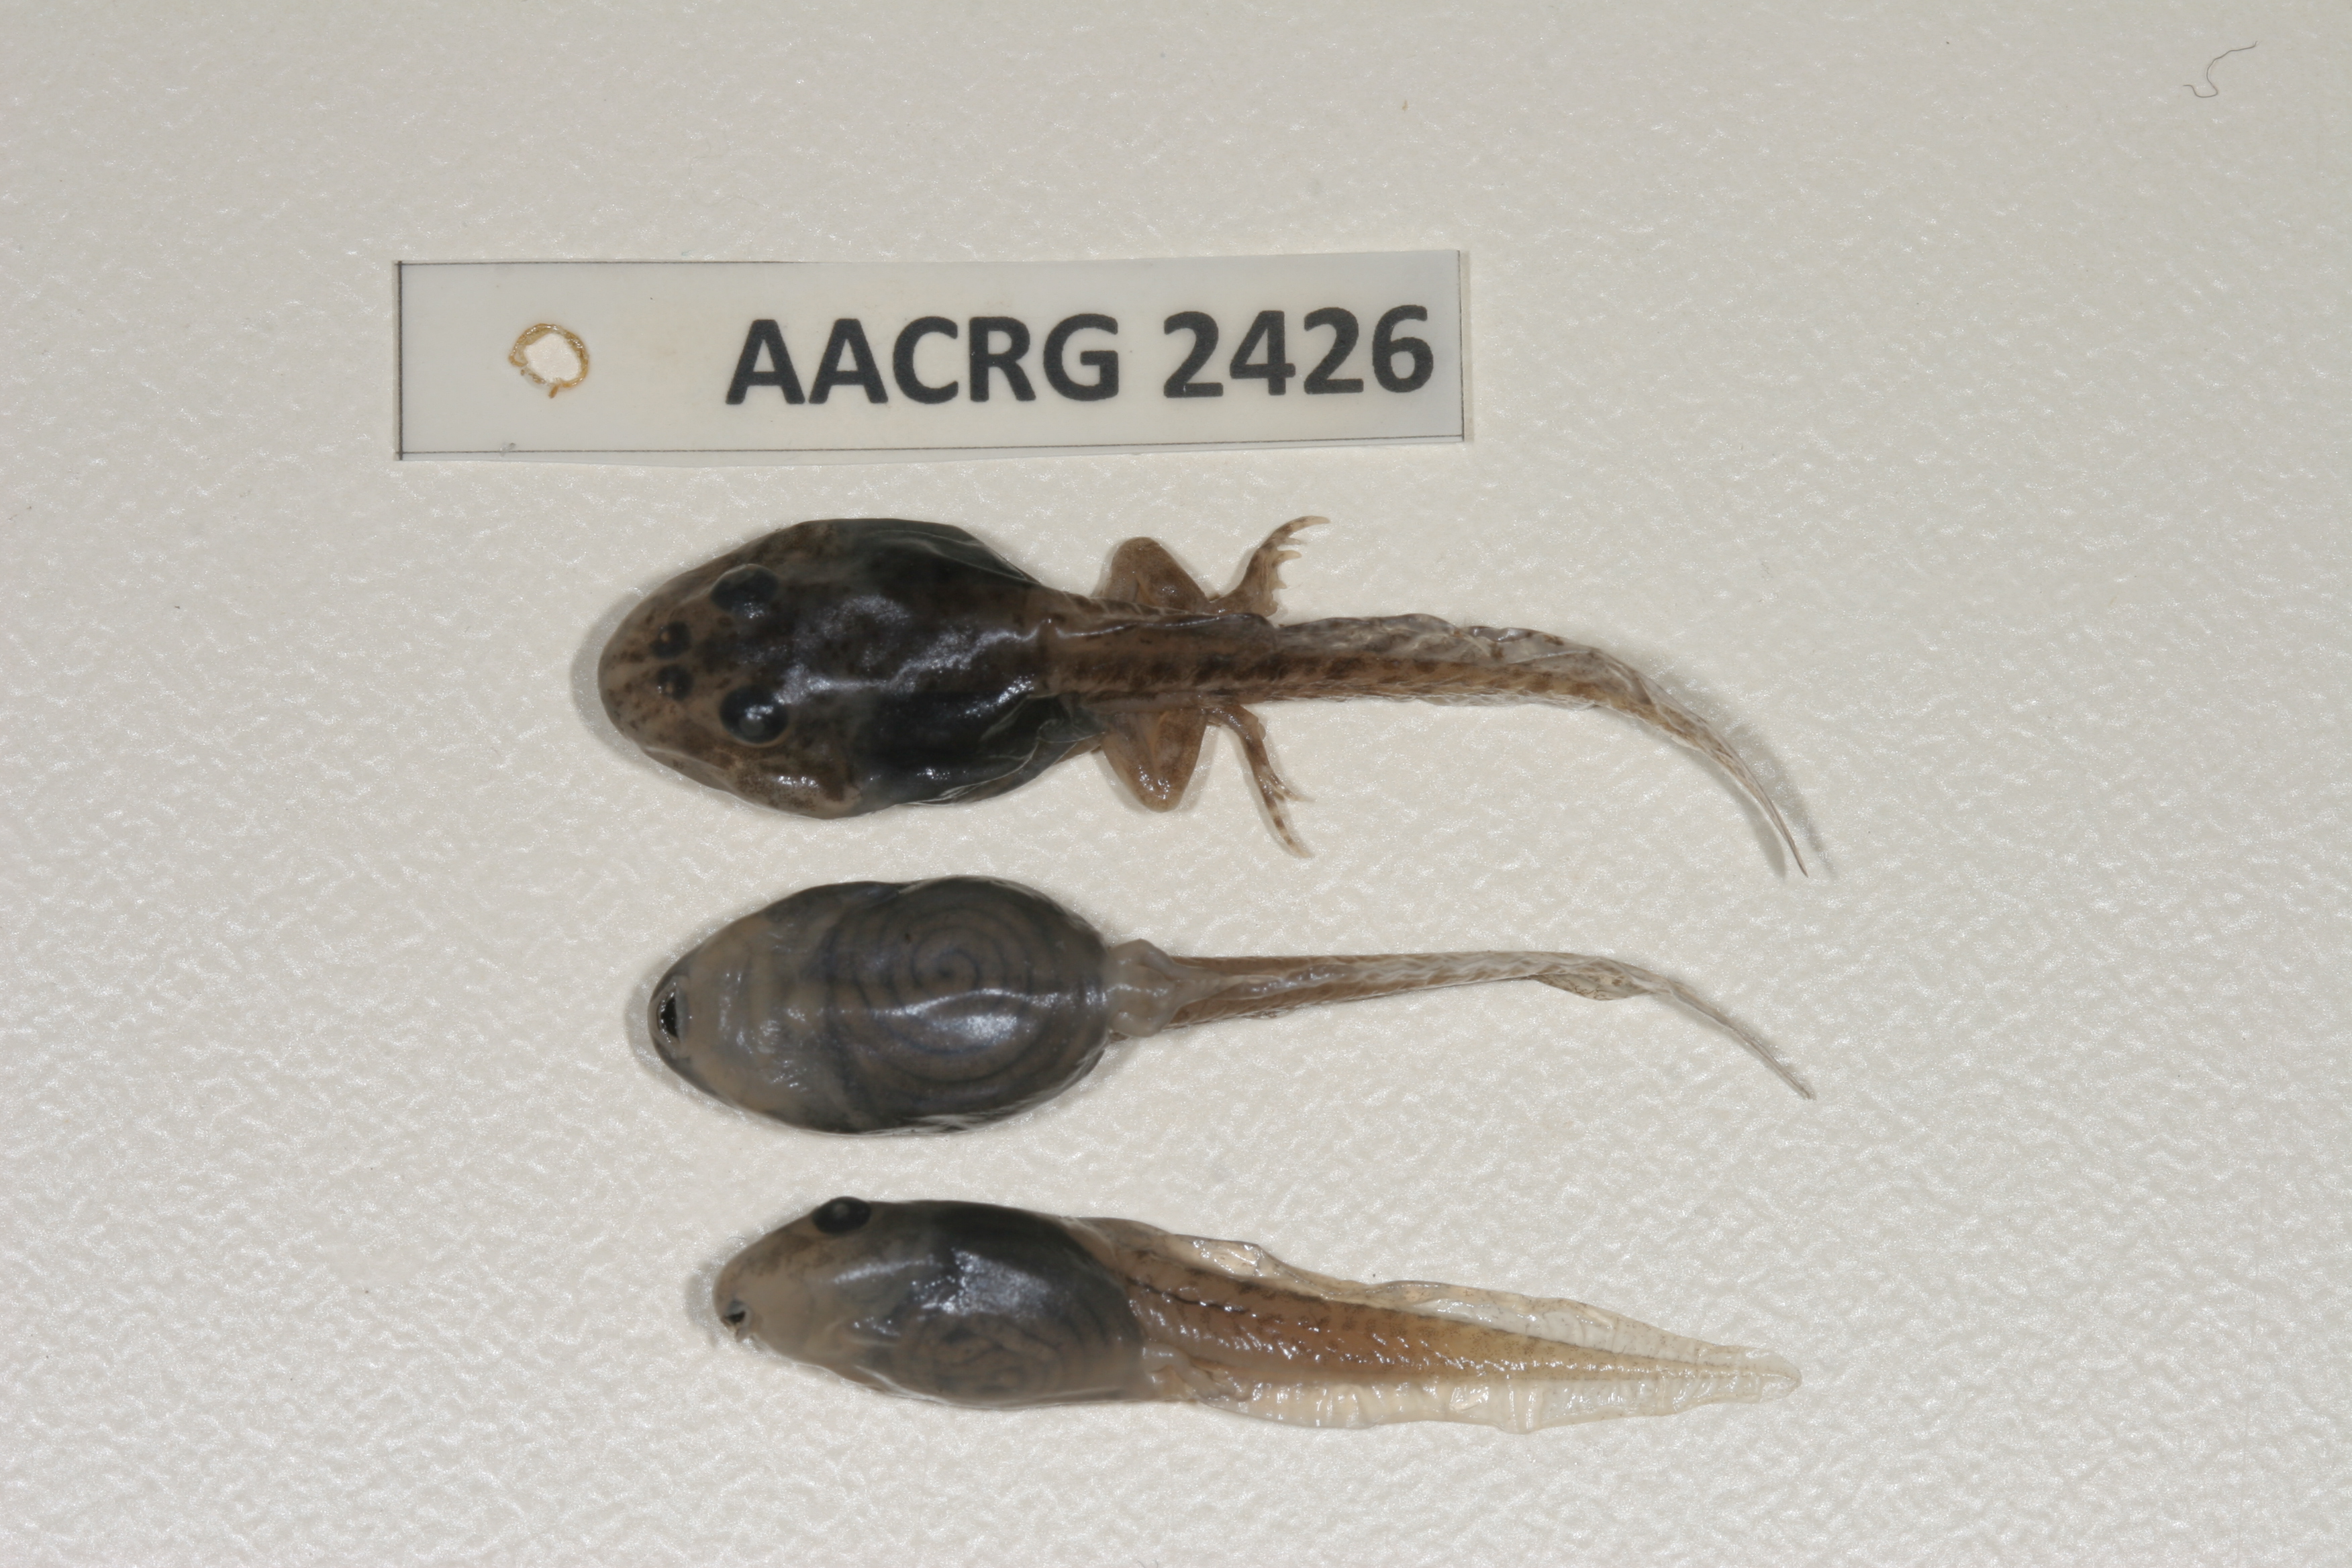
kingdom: Animalia
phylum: Chordata
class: Amphibia
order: Anura
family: Pyxicephalidae
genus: Tomopterna
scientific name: Tomopterna delalandii
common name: Delalande's burrowing bullfrog
